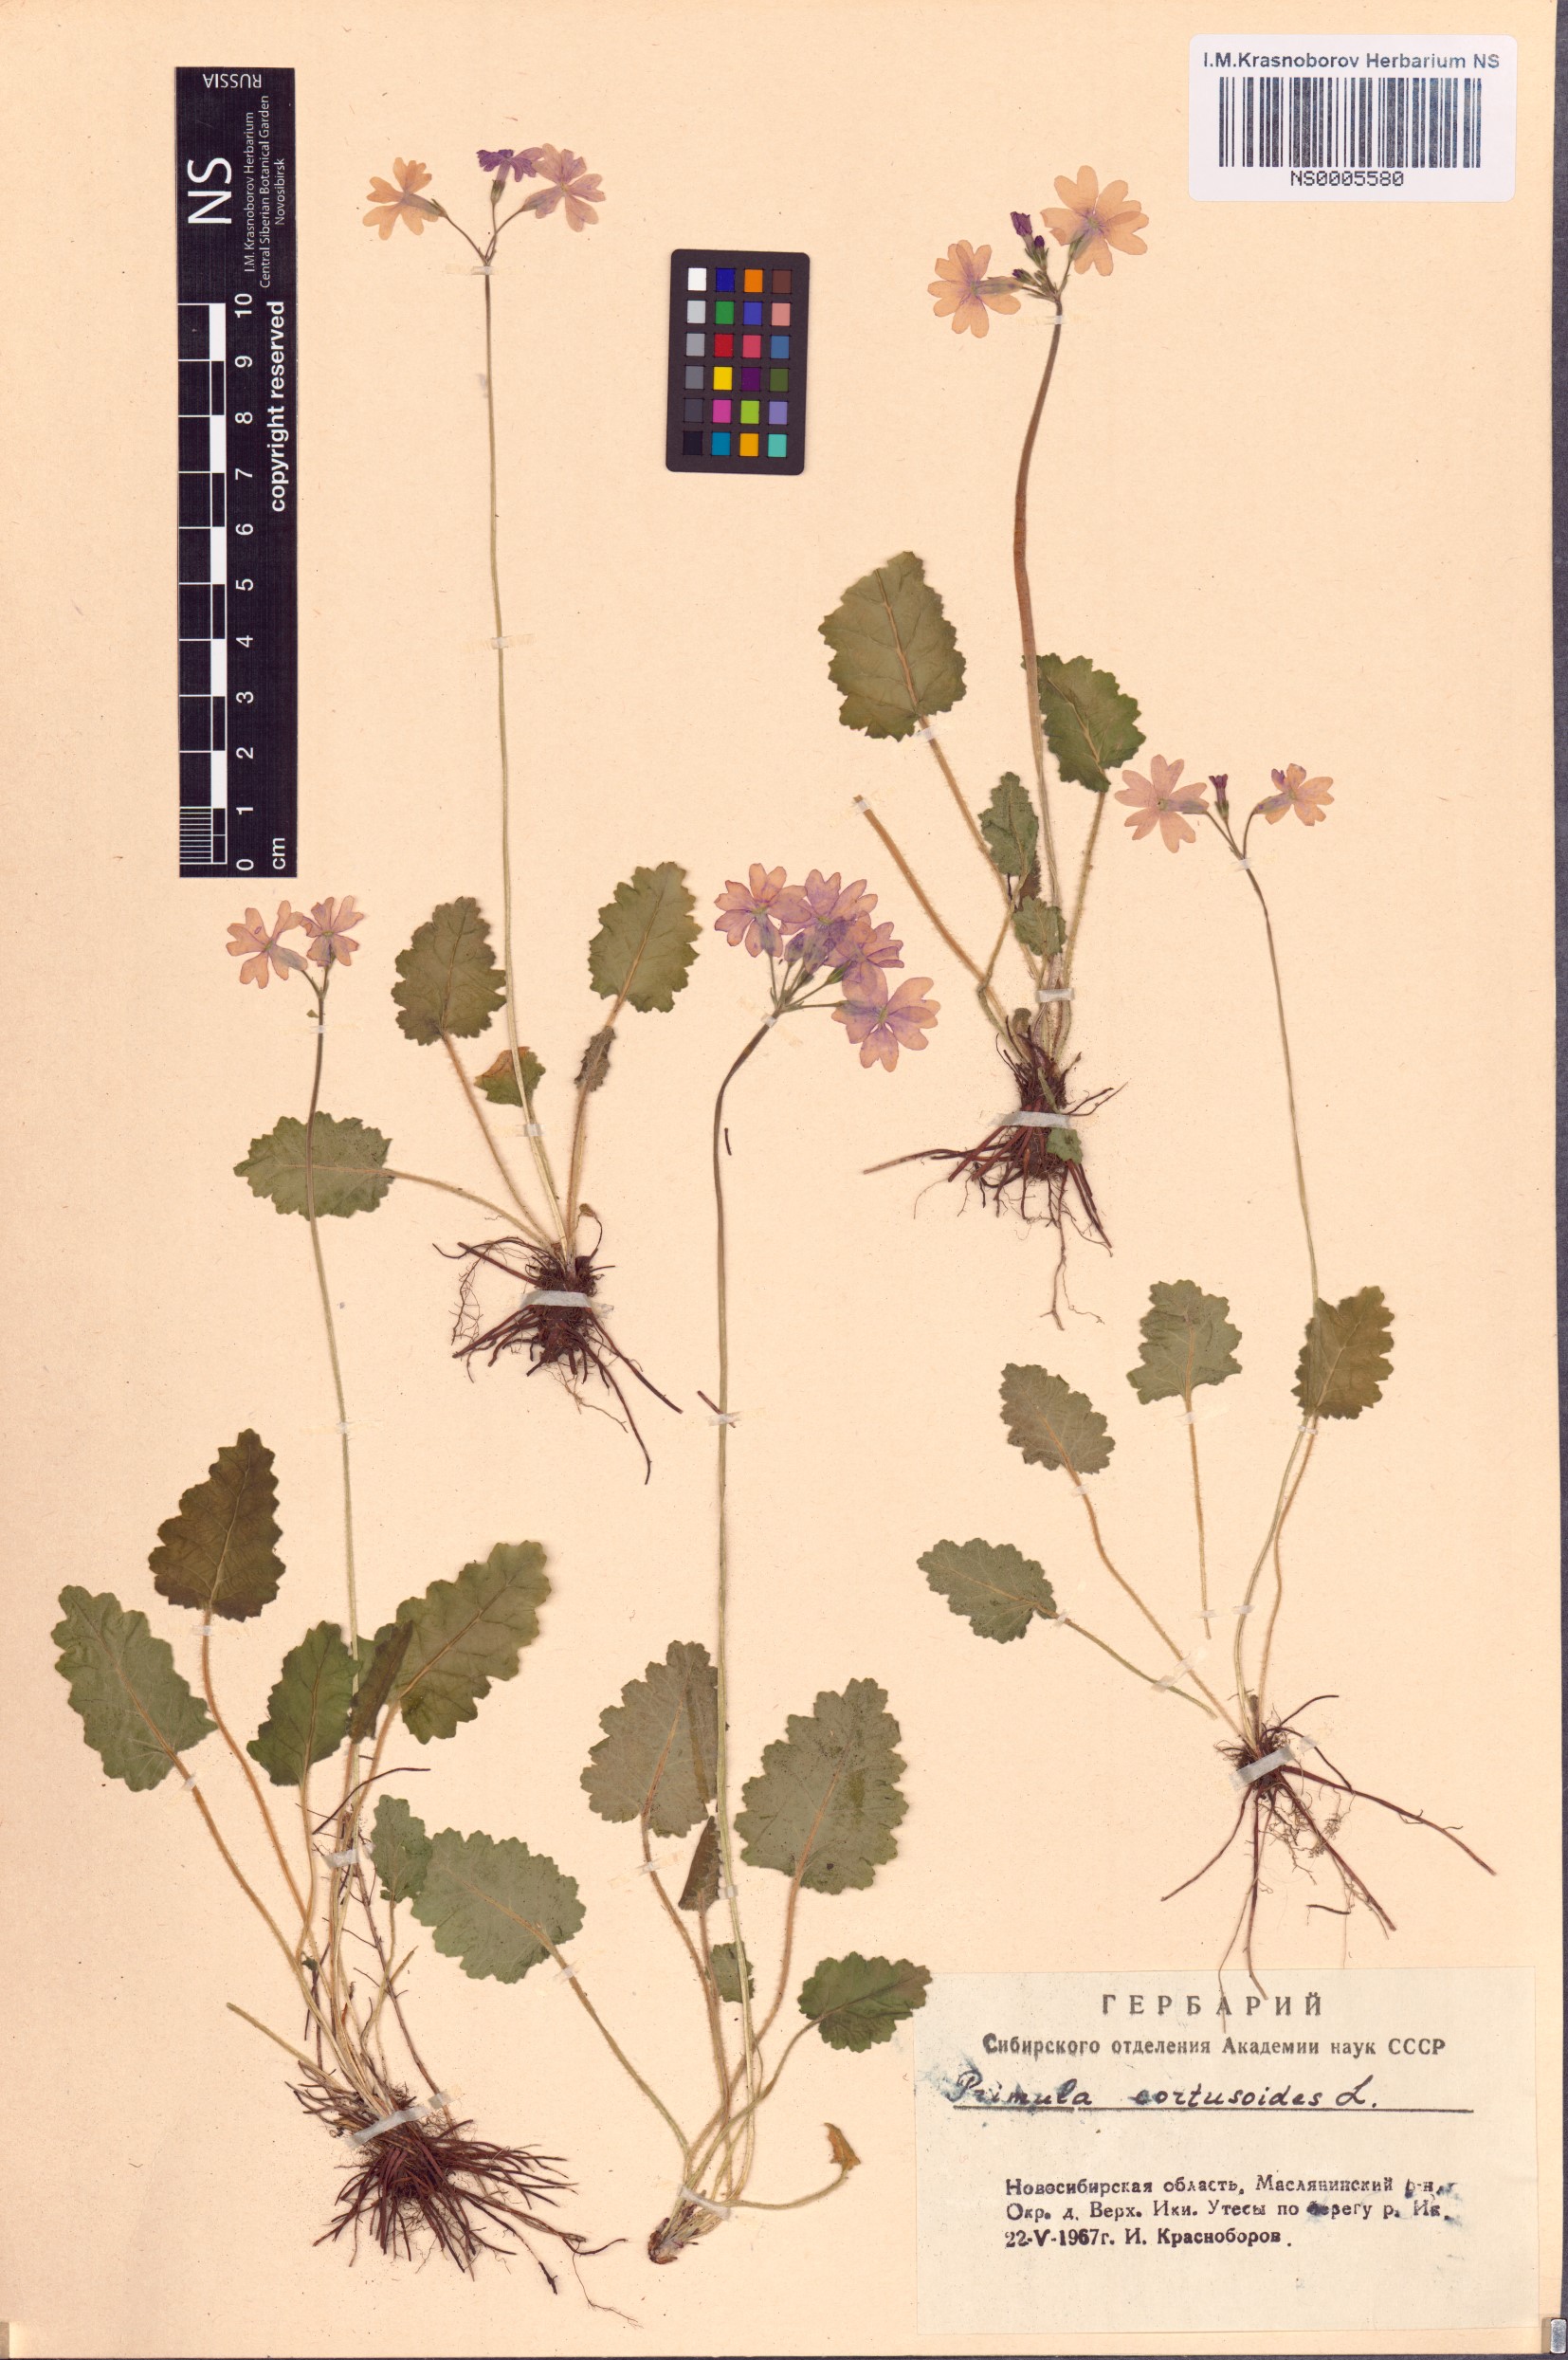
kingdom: Plantae
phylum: Tracheophyta
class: Magnoliopsida
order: Ericales
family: Primulaceae
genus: Primula
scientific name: Primula cortusoides
